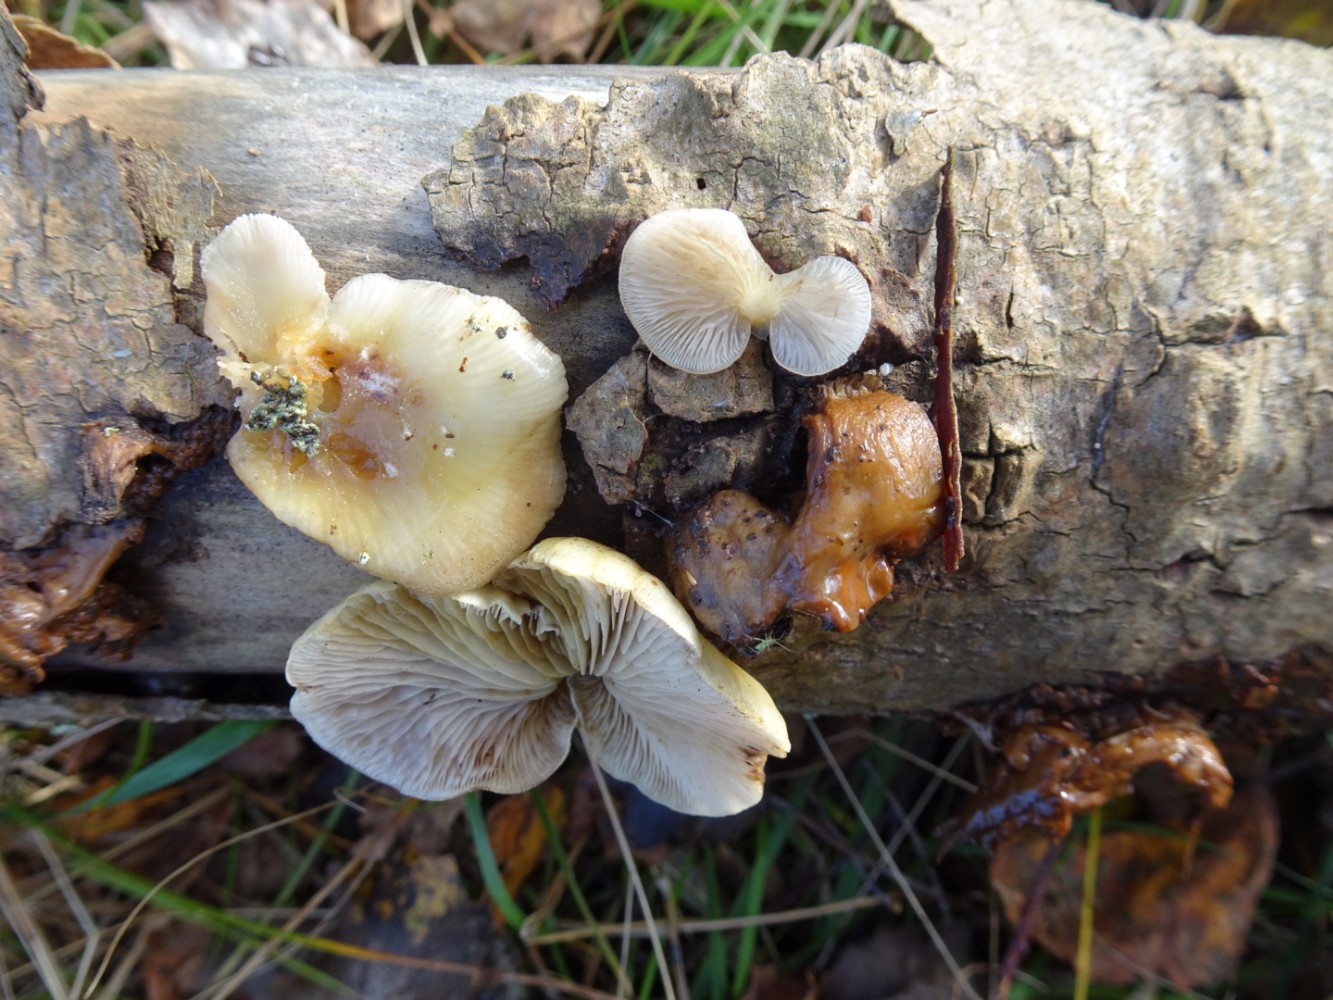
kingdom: Fungi
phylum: Basidiomycota
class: Agaricomycetes
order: Agaricales
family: Crepidotaceae
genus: Crepidotus
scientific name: Crepidotus mollis
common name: blød muslingesvamp
